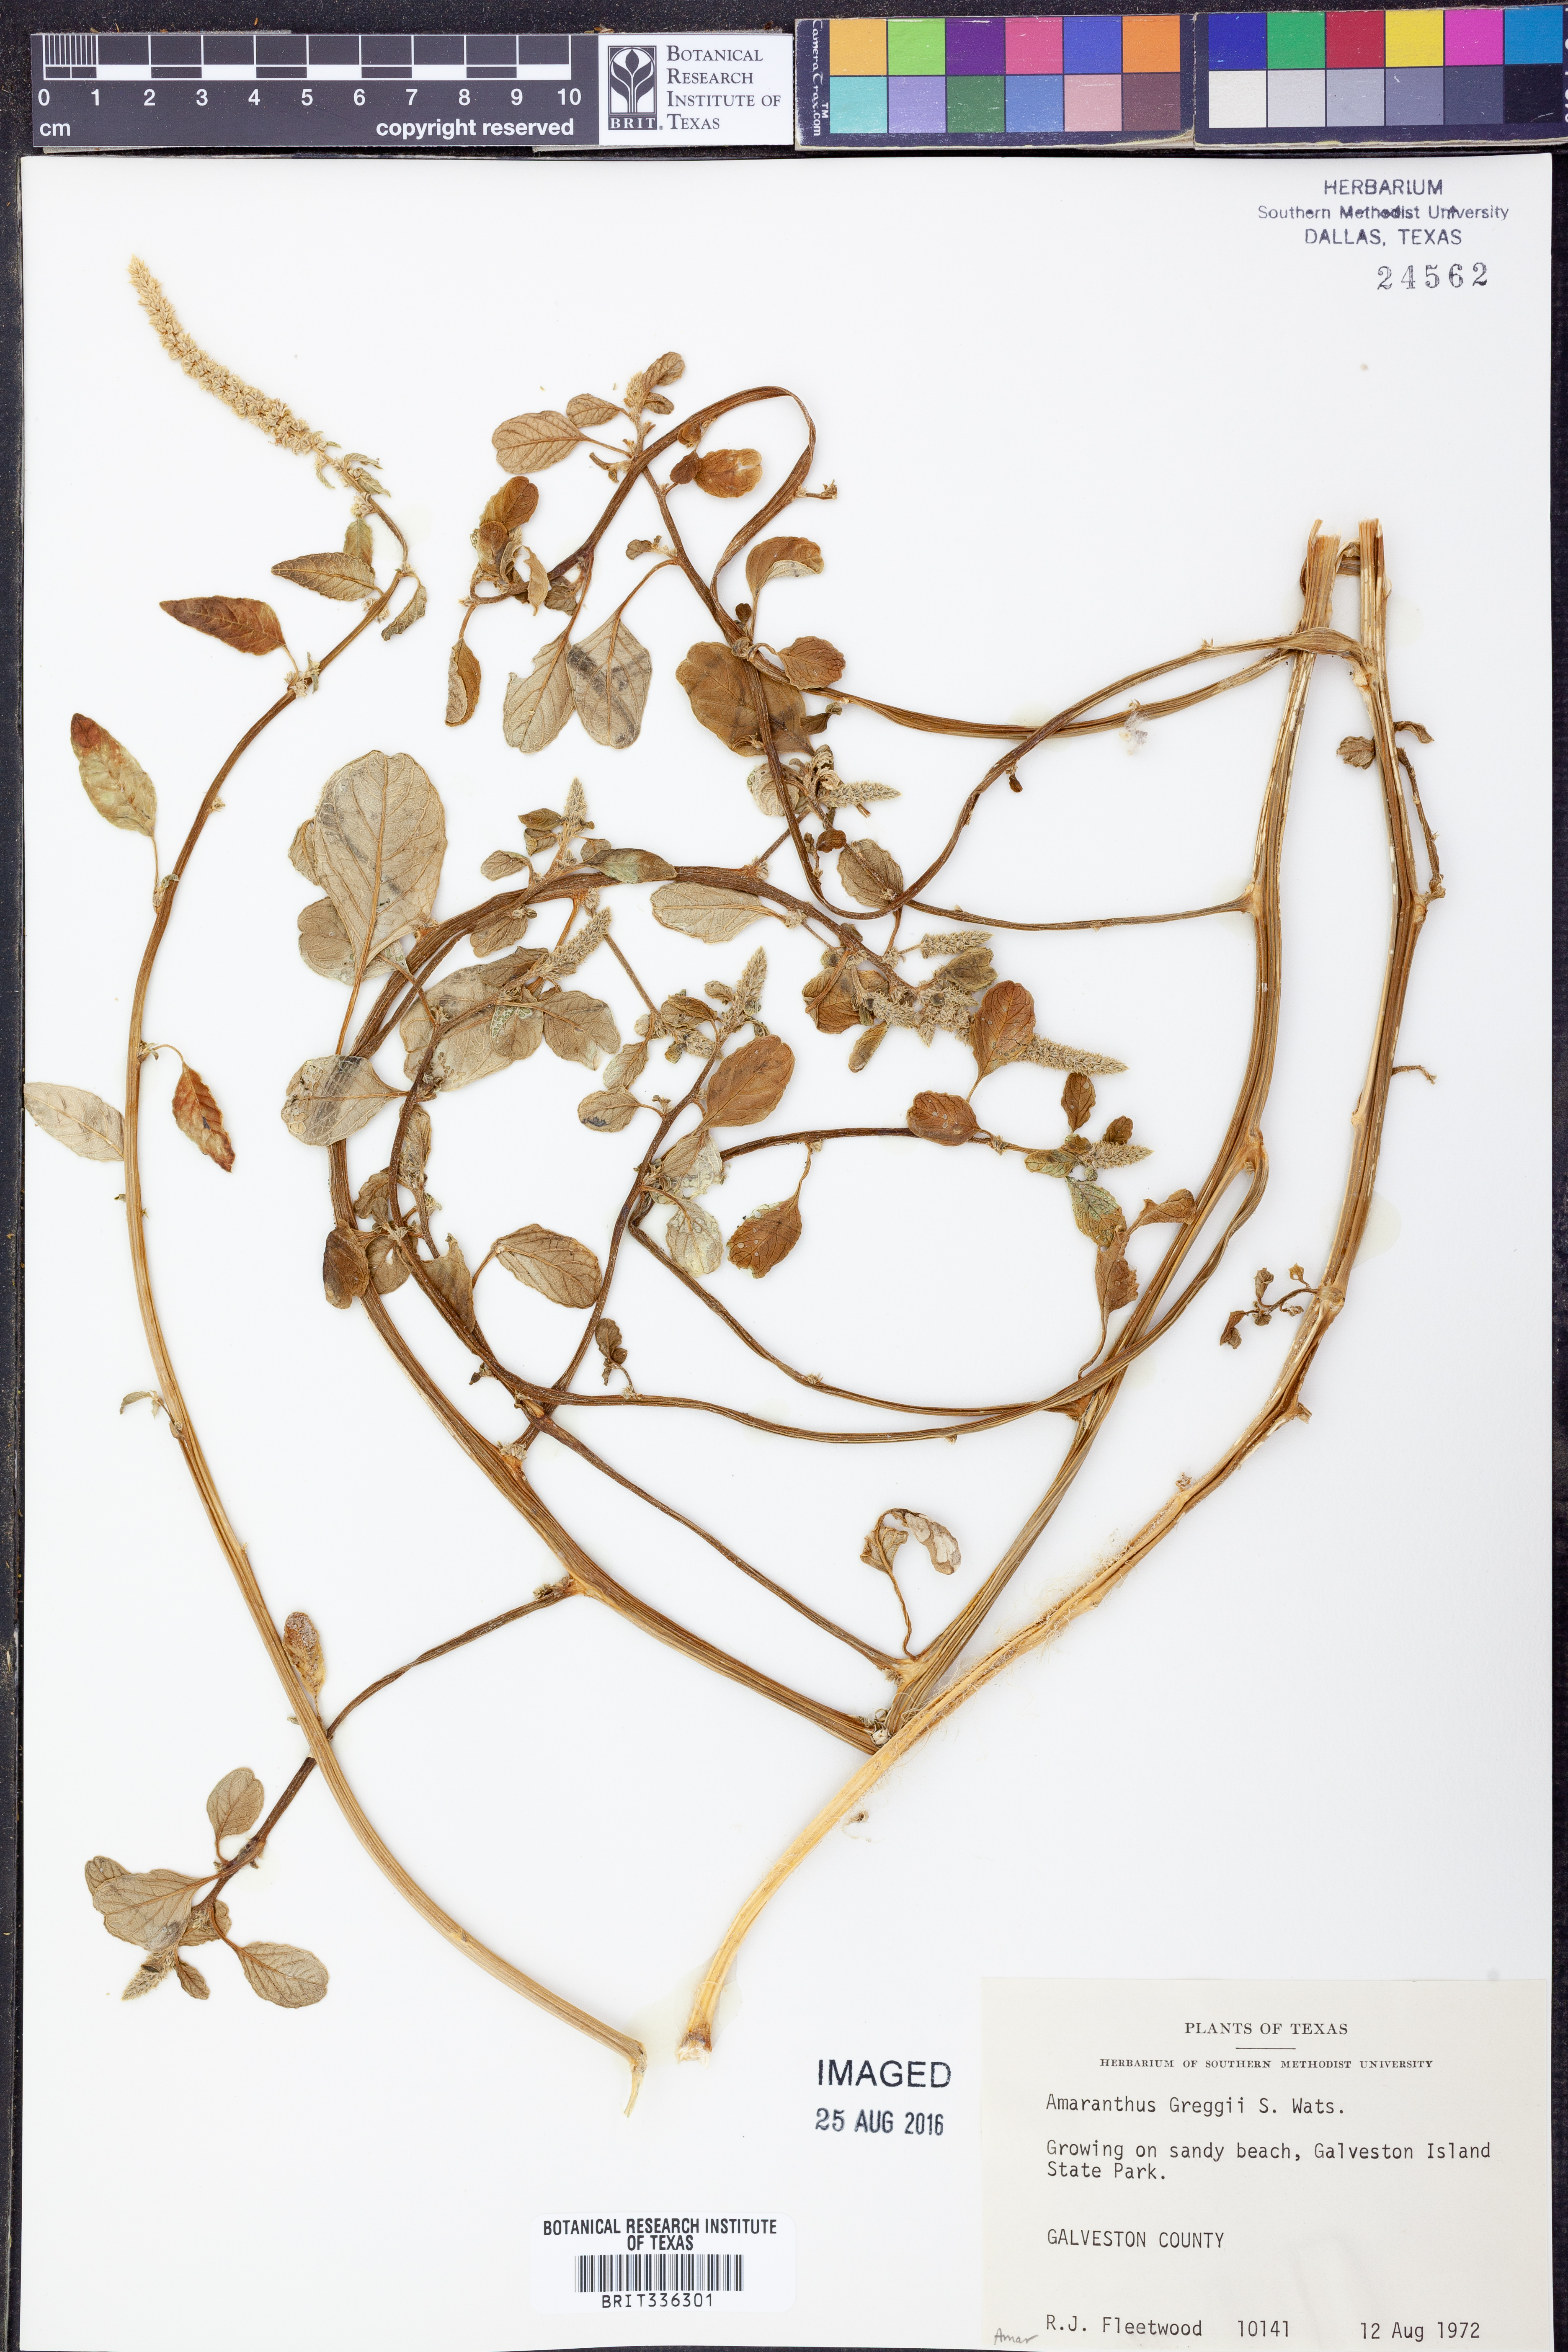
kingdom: Plantae
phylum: Tracheophyta
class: Magnoliopsida
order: Caryophyllales
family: Amaranthaceae
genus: Amaranthus
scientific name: Amaranthus greggii
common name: Josiah amaranth
